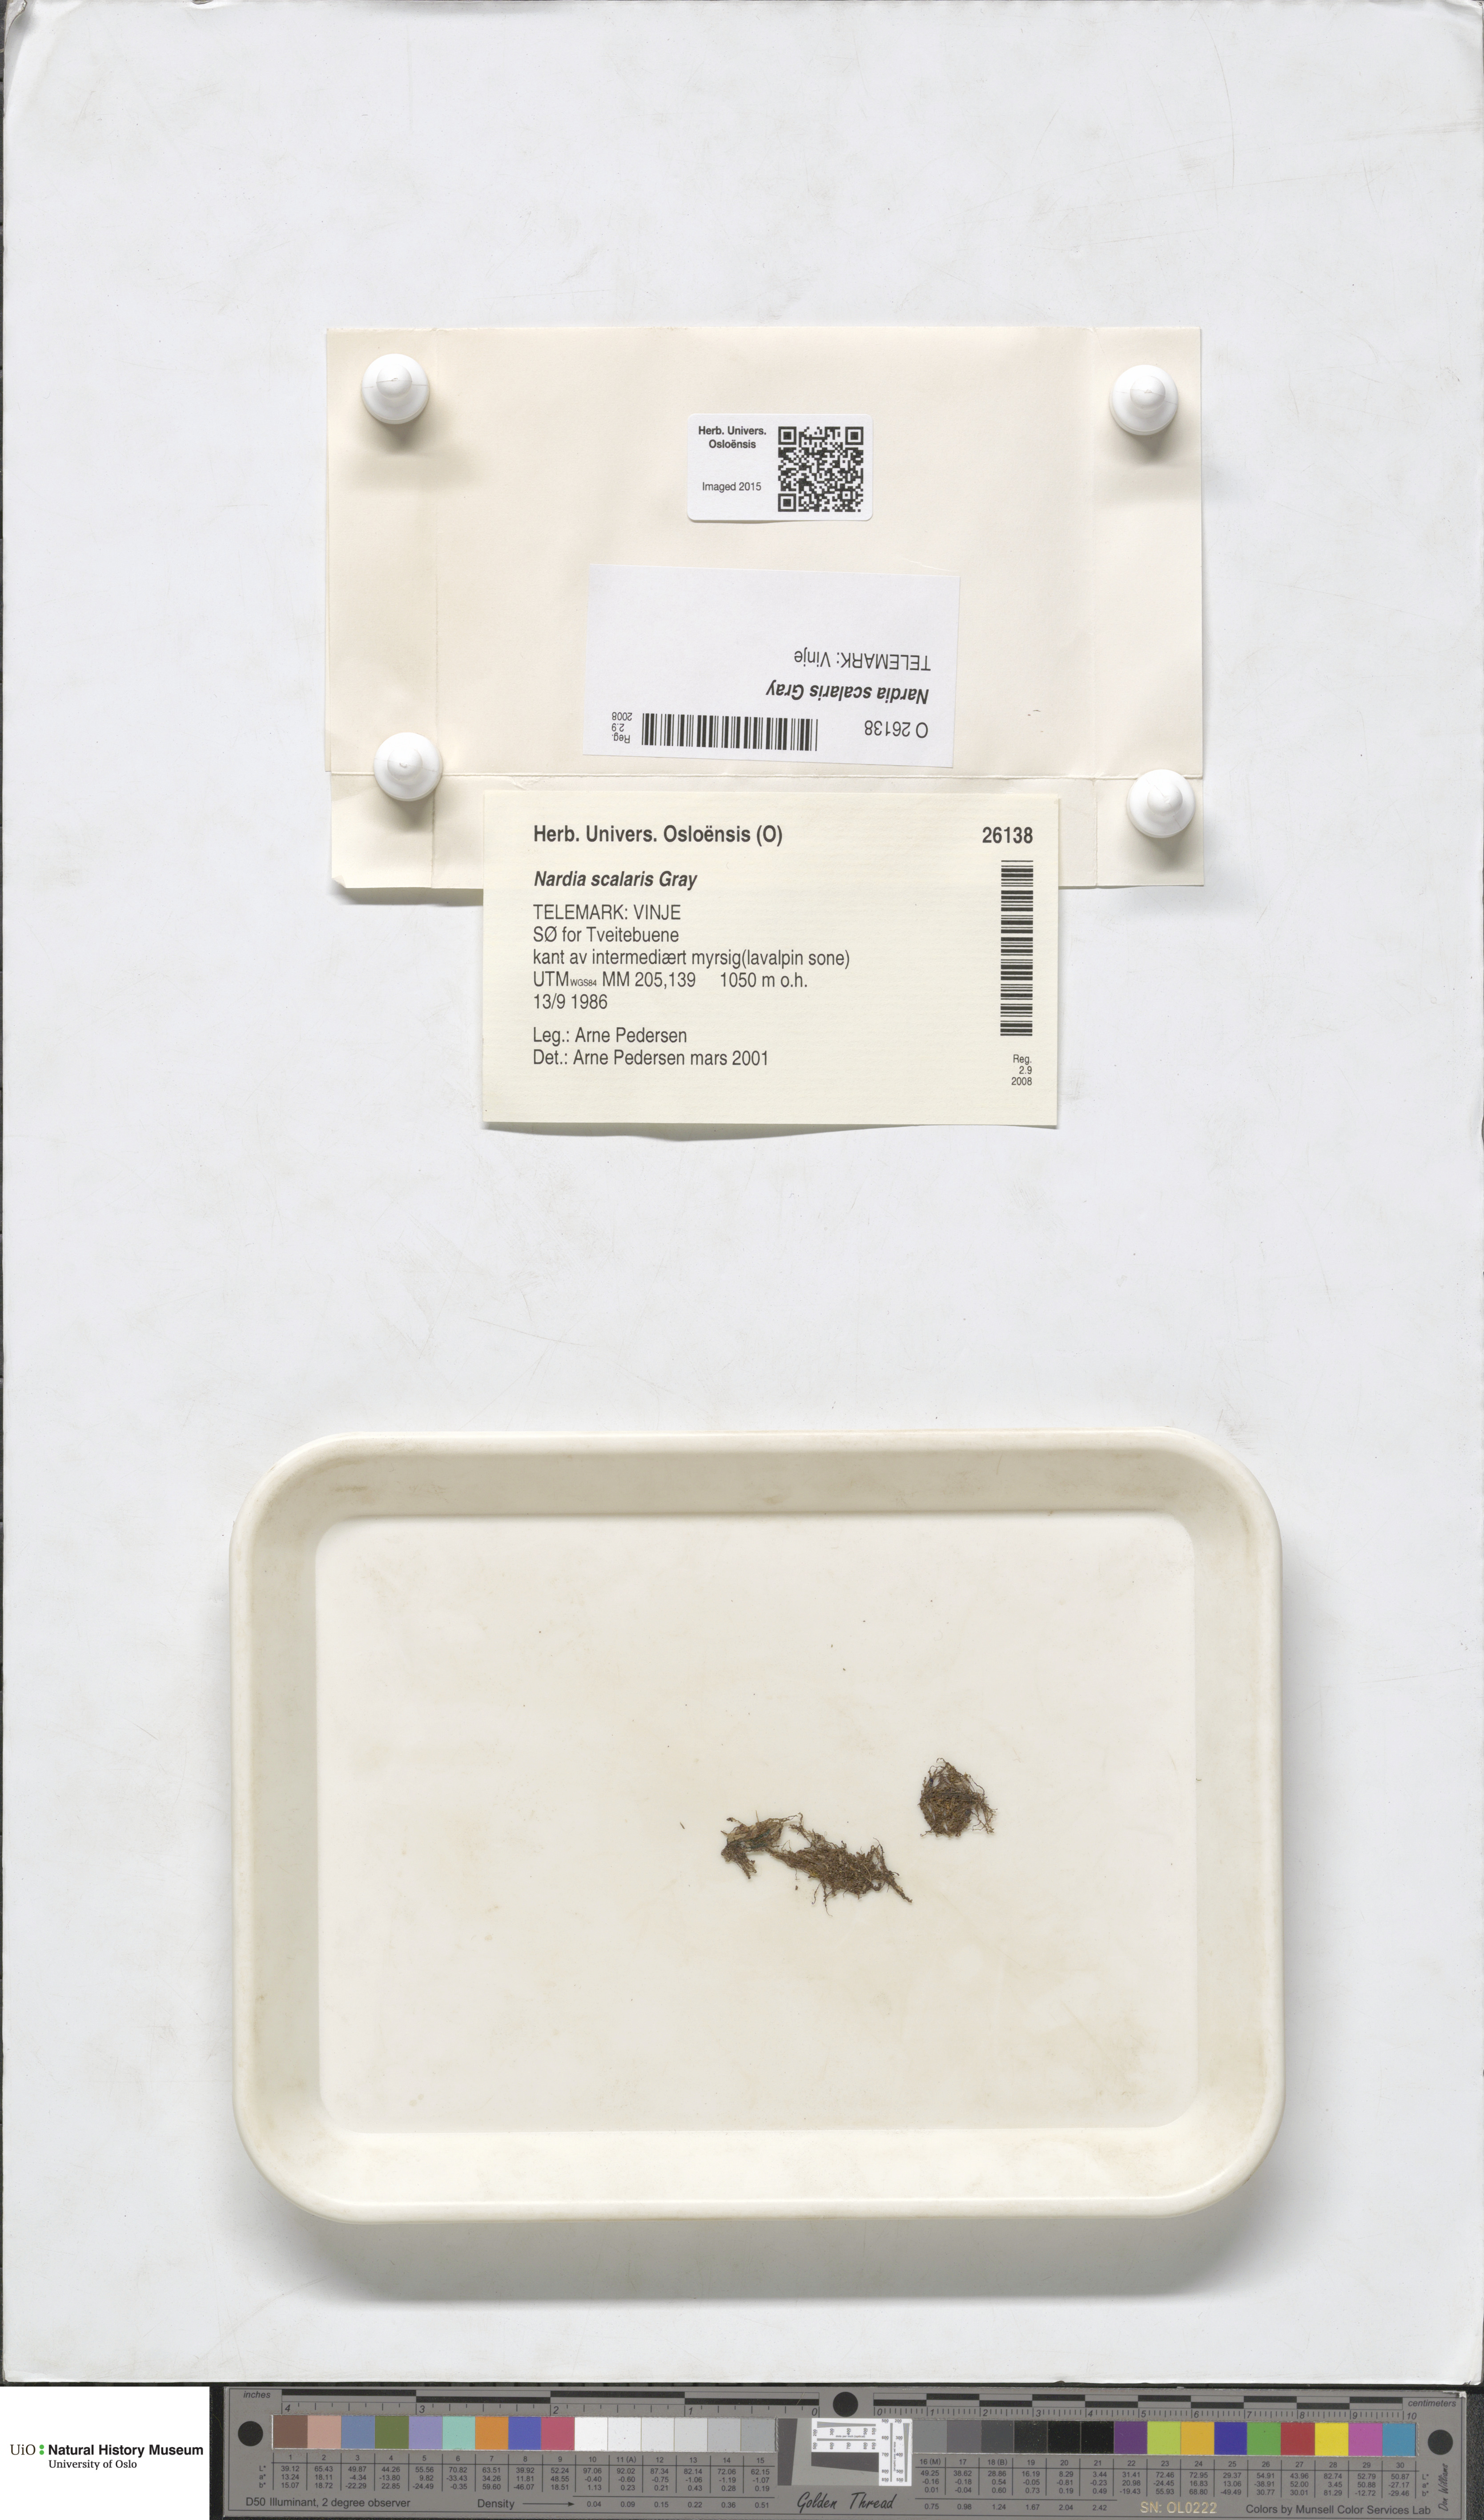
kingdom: Plantae
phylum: Marchantiophyta
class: Jungermanniopsida
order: Jungermanniales
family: Gymnomitriaceae
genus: Nardia
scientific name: Nardia scalaris
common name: Ladder flapwort
